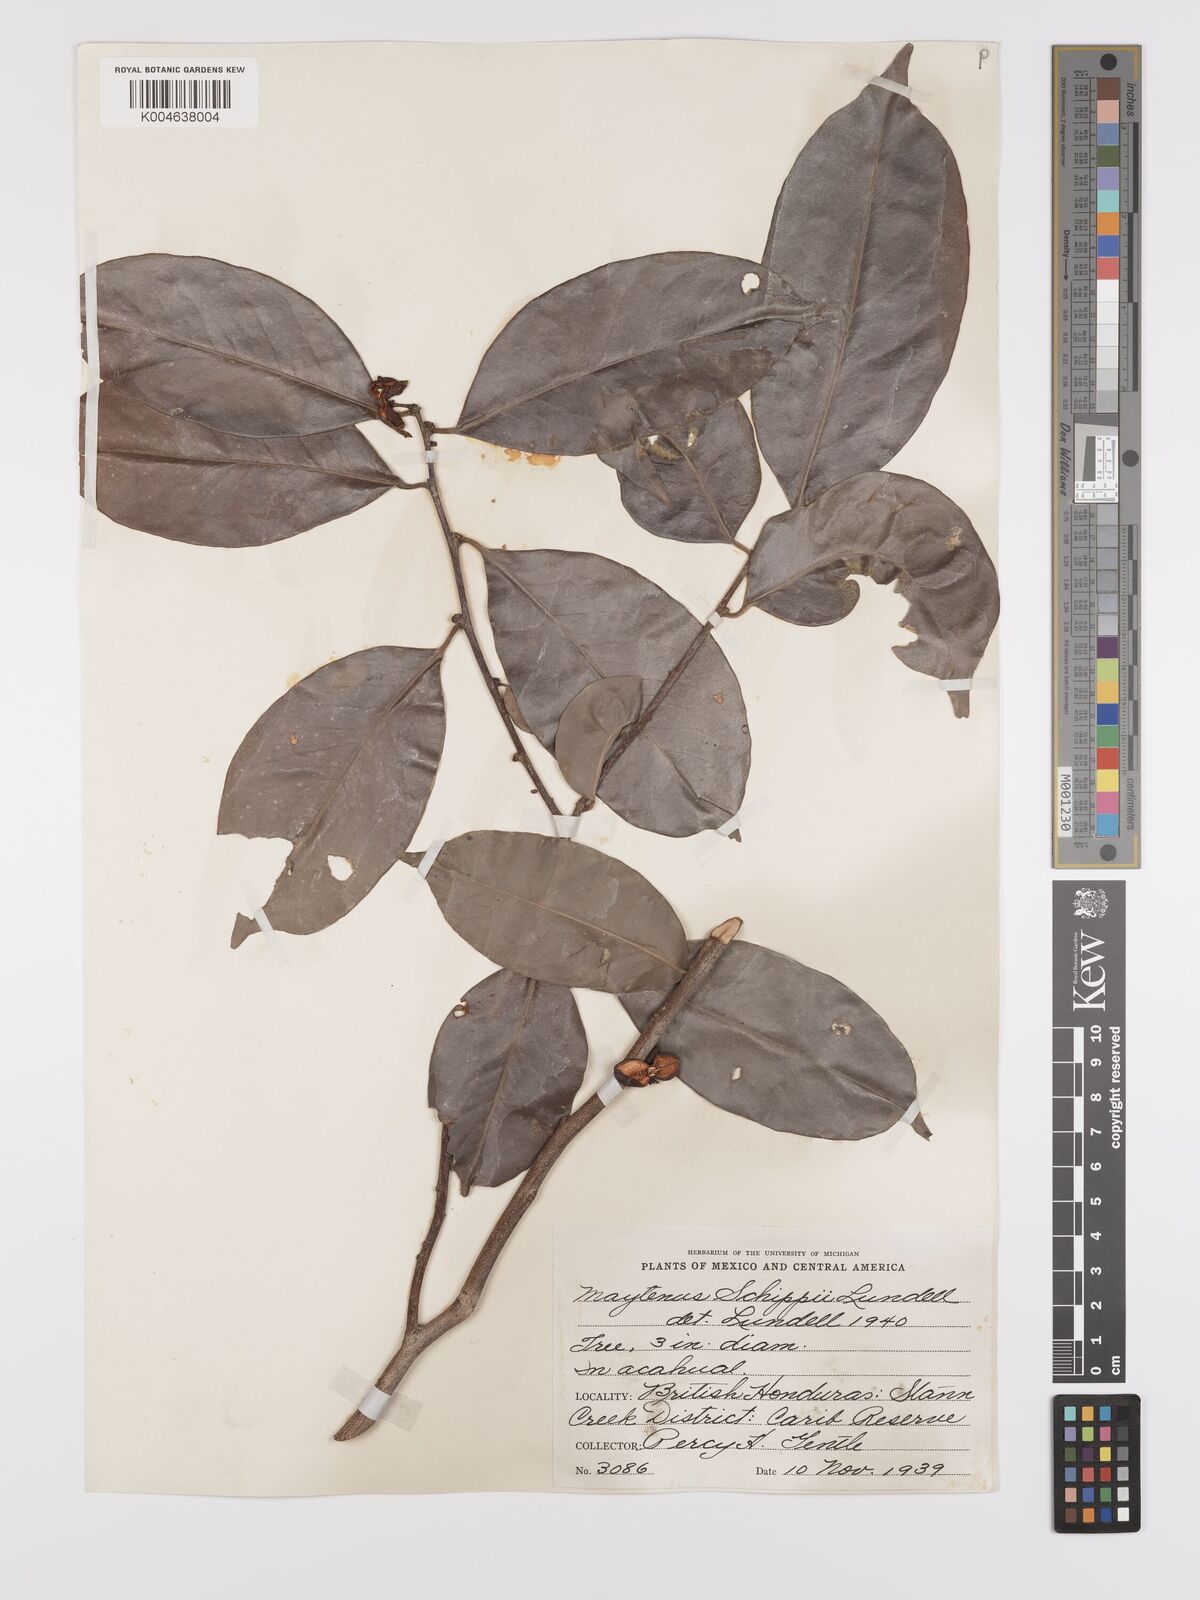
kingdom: Plantae
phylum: Tracheophyta
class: Magnoliopsida
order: Celastrales
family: Celastraceae
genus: Monteverdia
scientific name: Monteverdia schippii
